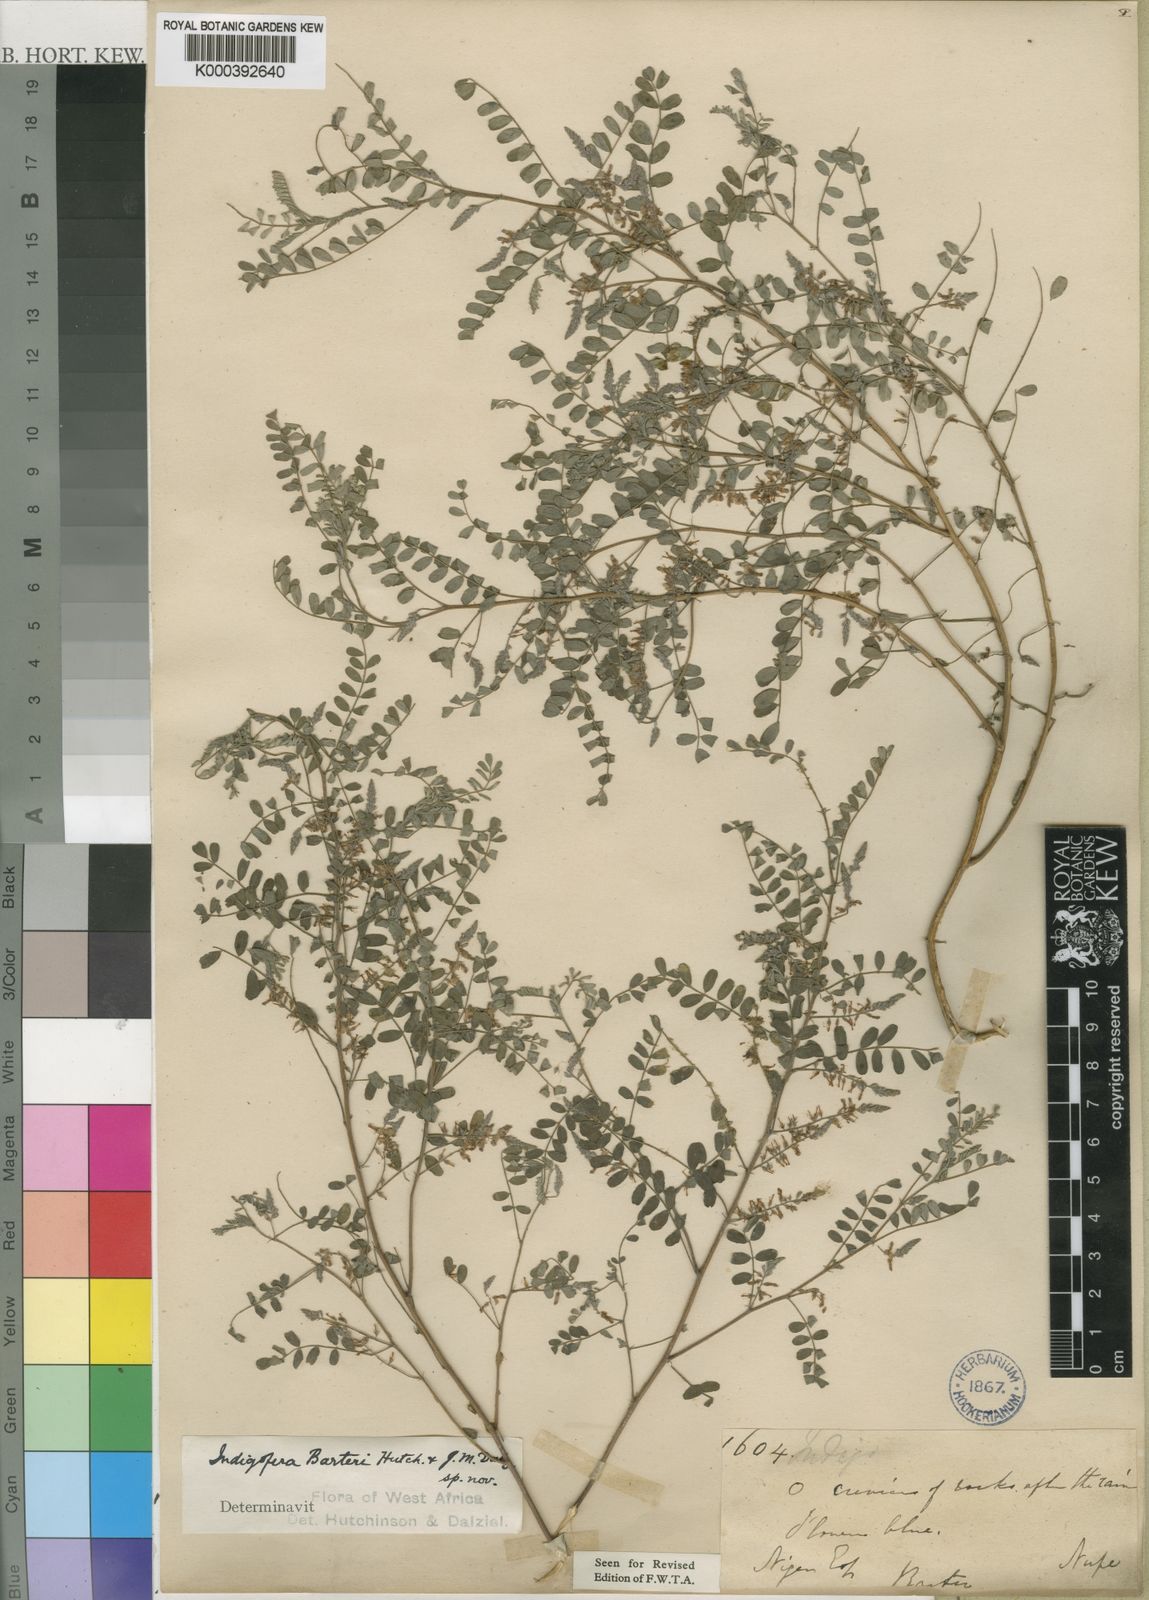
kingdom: Plantae
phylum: Tracheophyta
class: Magnoliopsida
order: Fabales
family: Fabaceae
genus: Indigofera
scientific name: Indigofera barteri
